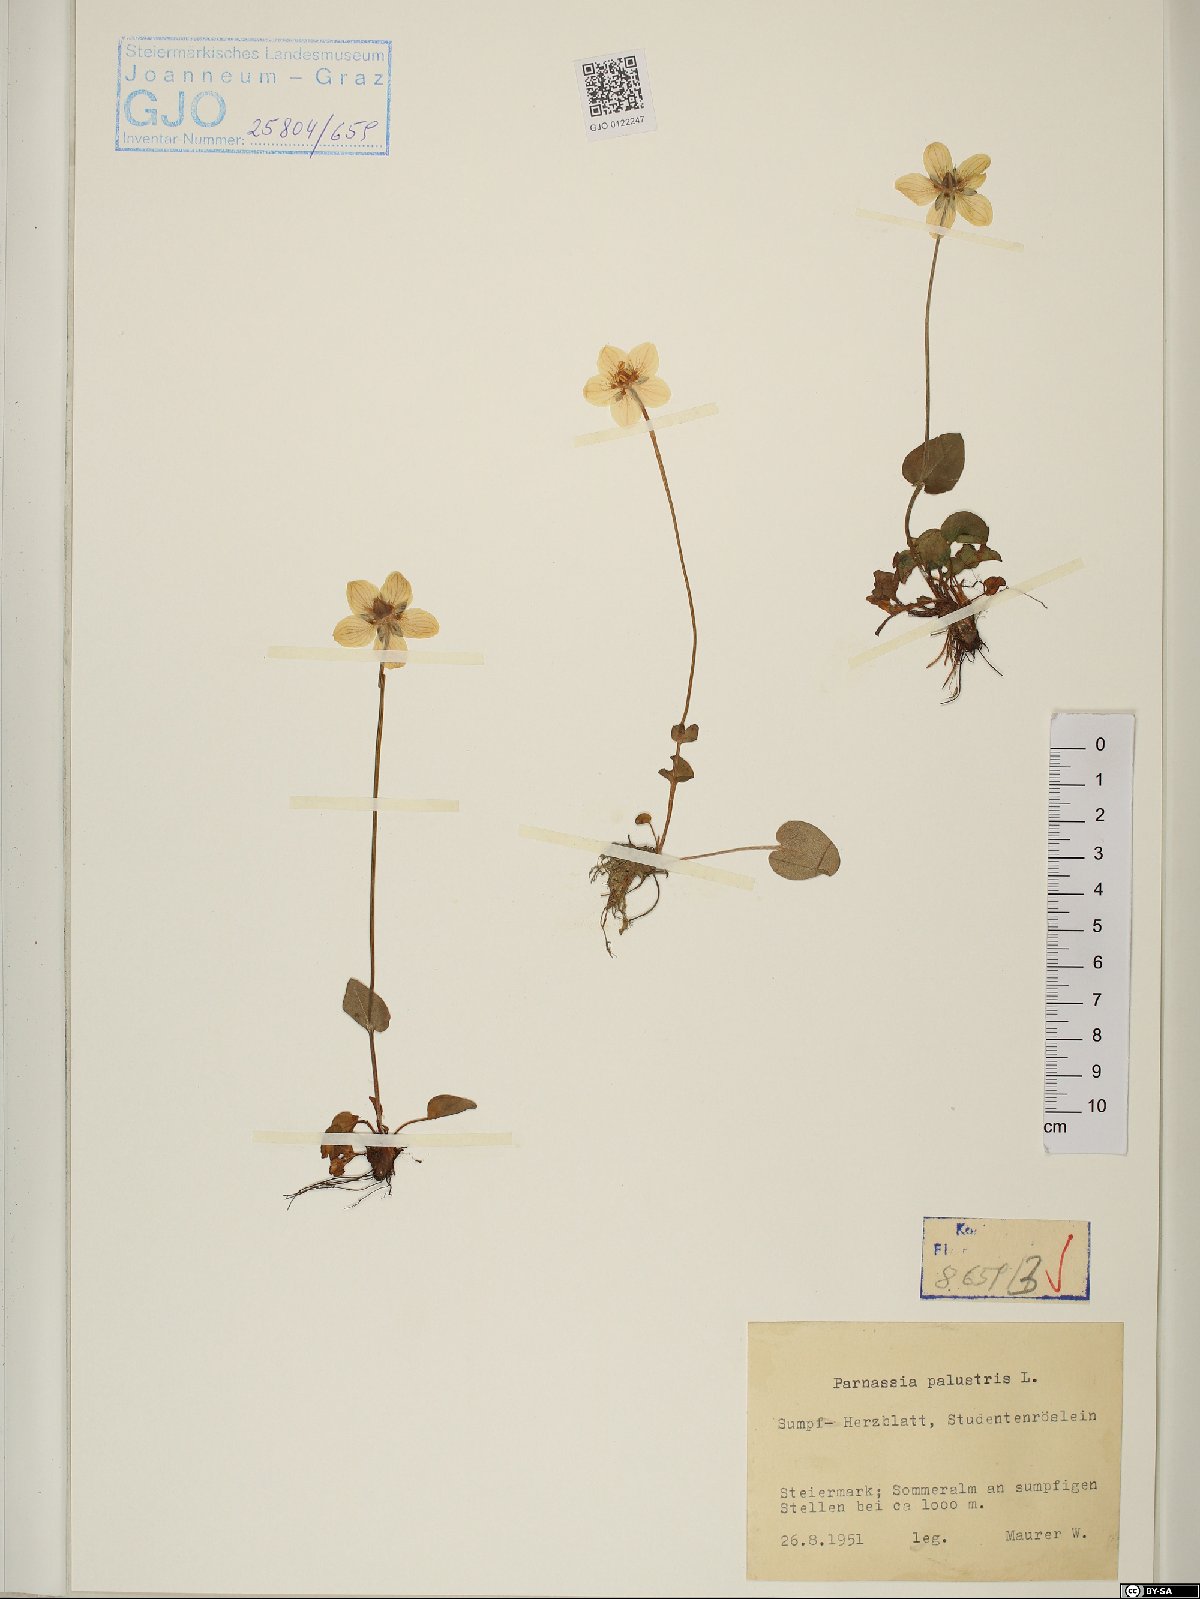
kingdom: Plantae
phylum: Tracheophyta
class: Magnoliopsida
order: Celastrales
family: Parnassiaceae
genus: Parnassia
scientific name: Parnassia palustris
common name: Grass-of-parnassus
